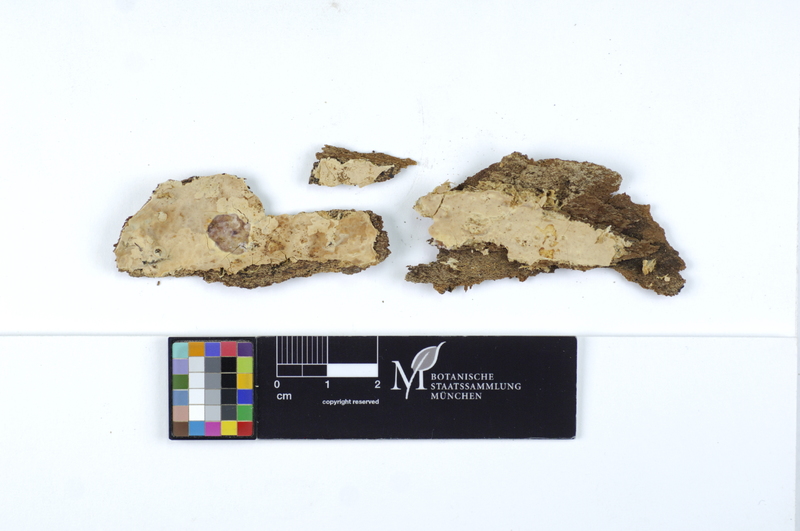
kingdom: Plantae
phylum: Tracheophyta
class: Magnoliopsida
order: Fagales
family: Betulaceae
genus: Betula
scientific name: Betula
